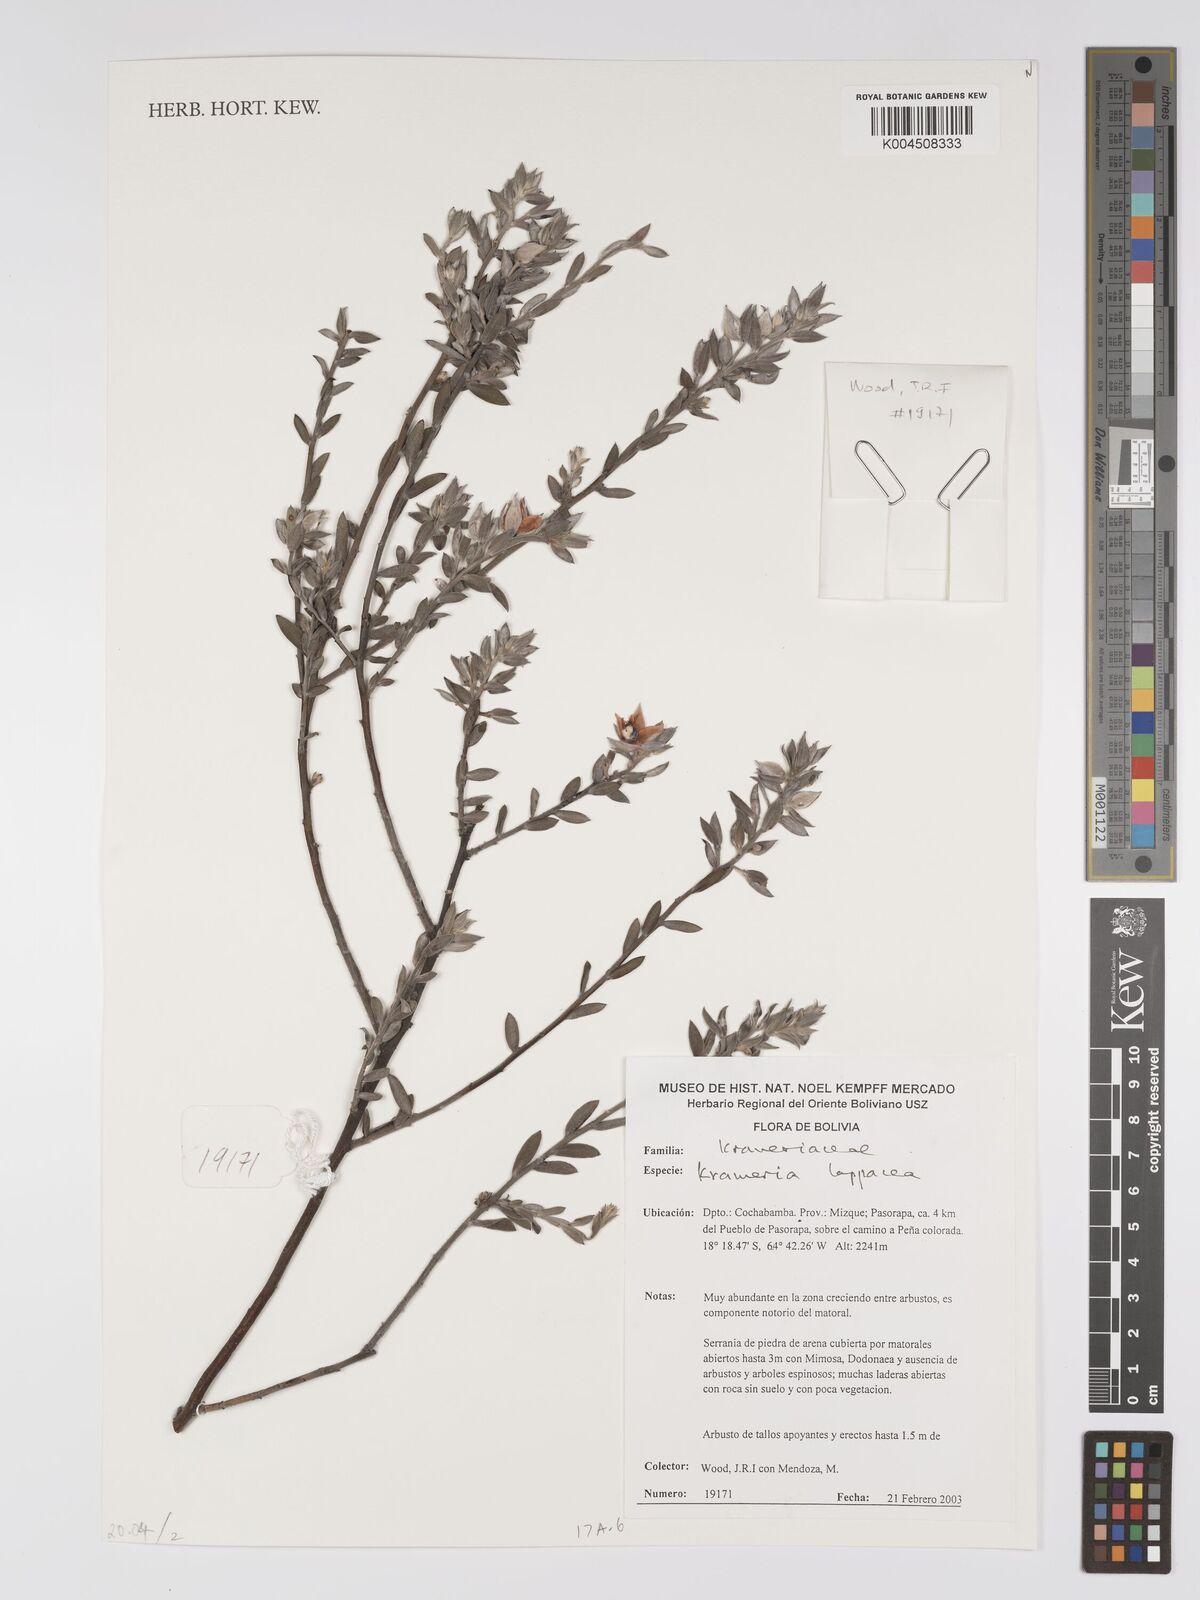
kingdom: Plantae
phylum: Tracheophyta
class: Magnoliopsida
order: Zygophyllales
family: Krameriaceae
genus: Krameria
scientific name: Krameria lappacea
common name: Rhatany
